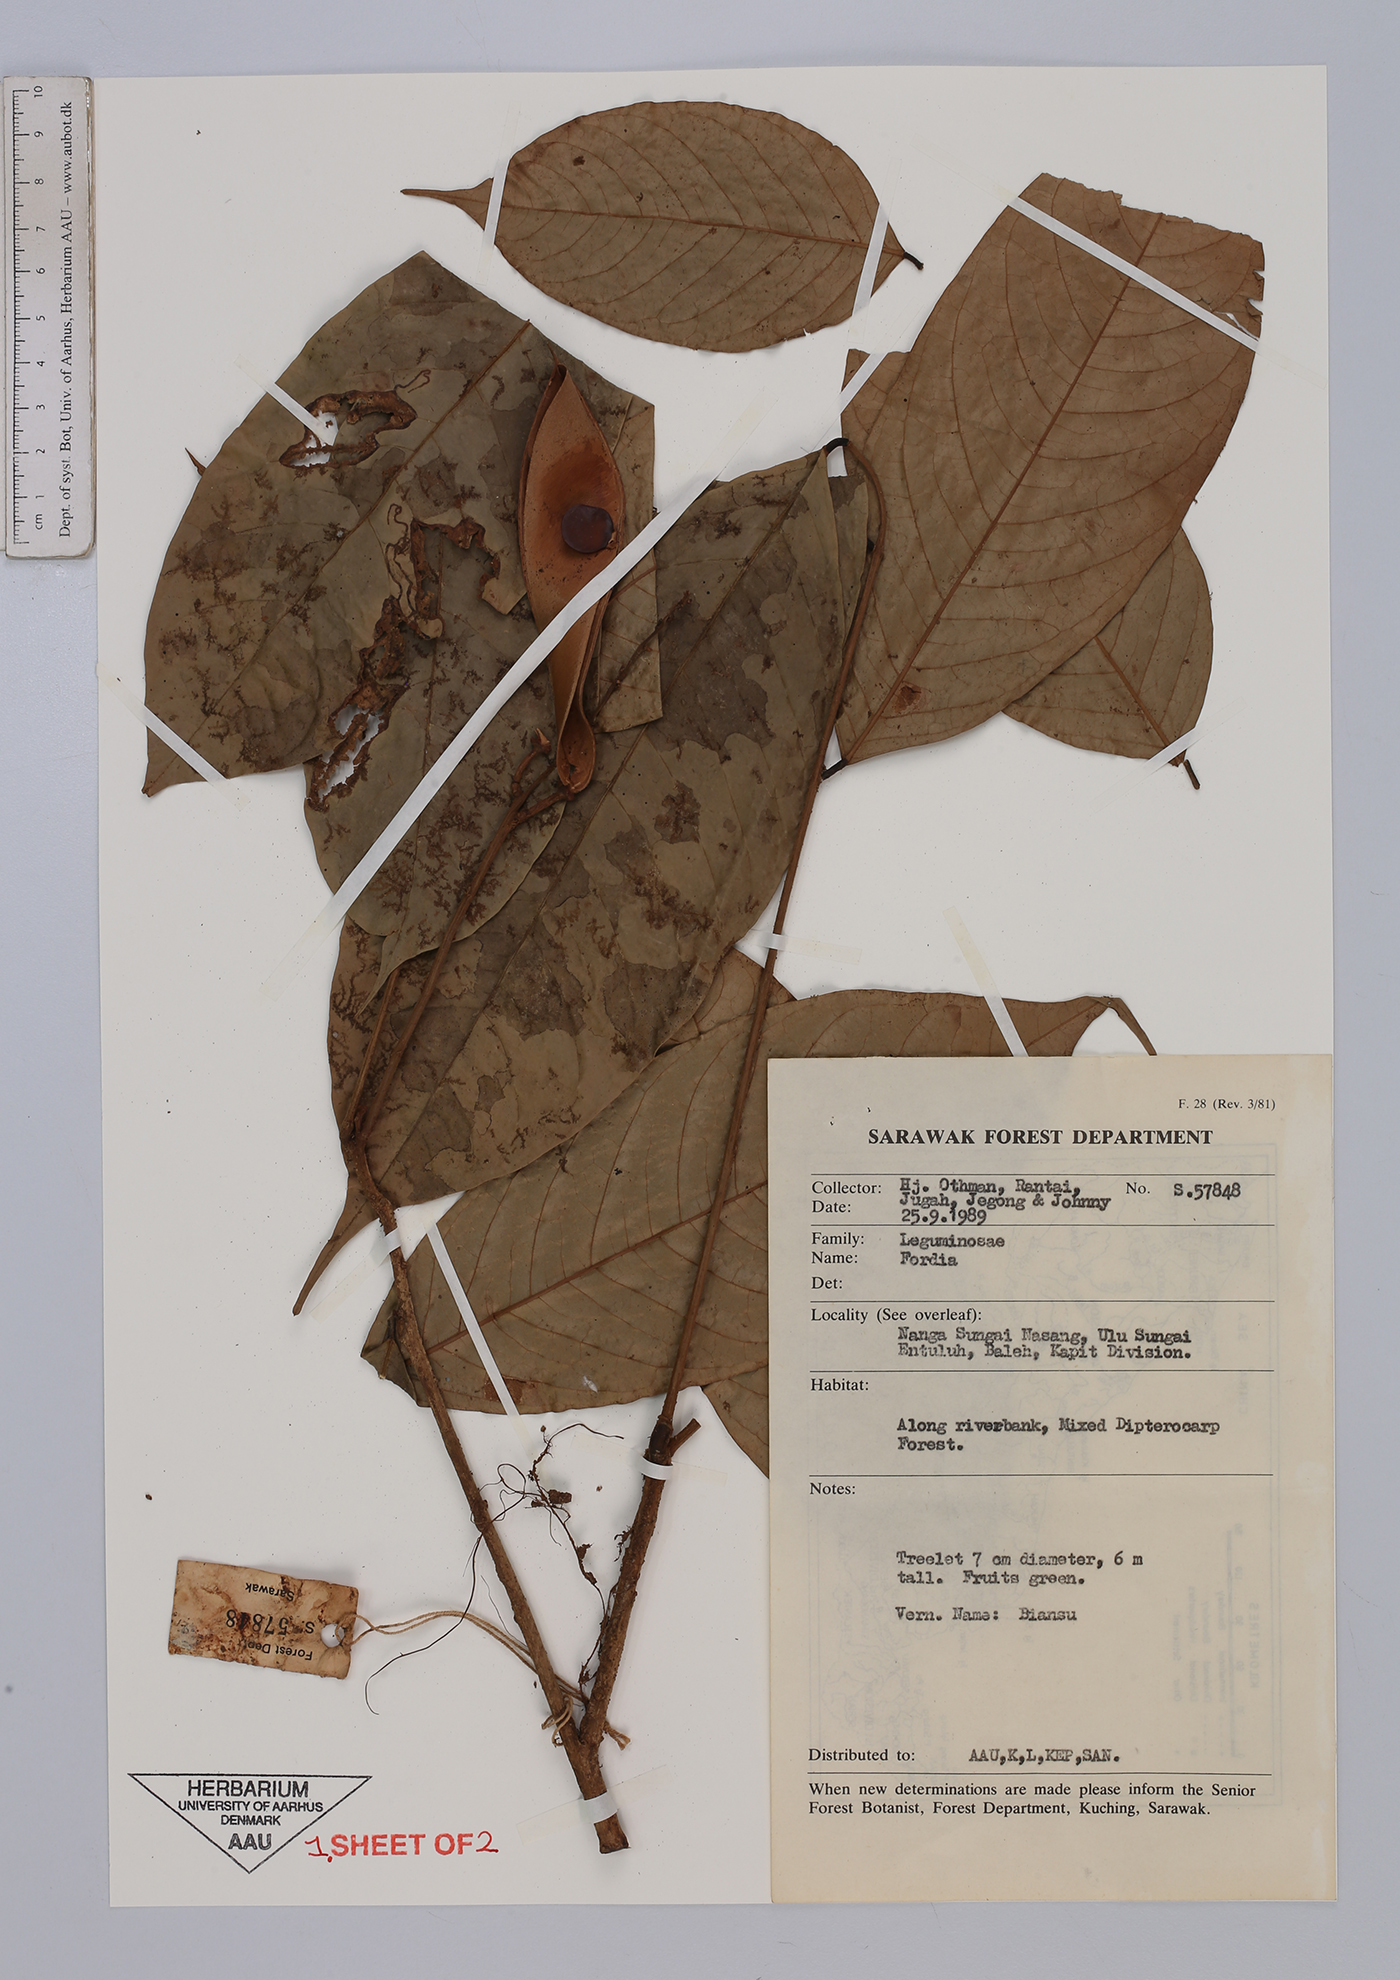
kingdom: Plantae
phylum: Tracheophyta
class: Magnoliopsida
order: Fabales
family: Fabaceae
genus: Fordia
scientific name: Fordia
